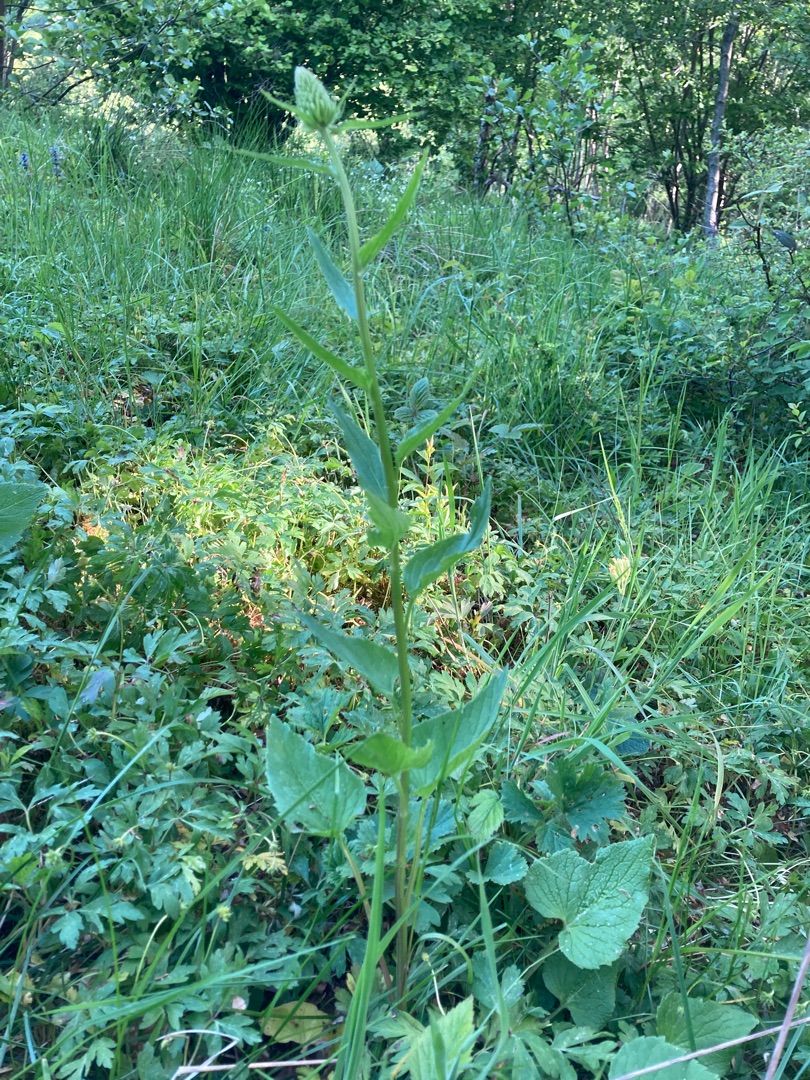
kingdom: Plantae
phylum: Tracheophyta
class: Magnoliopsida
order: Asterales
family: Campanulaceae
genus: Phyteuma
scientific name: Phyteuma spicatum
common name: Aks-rapunsel
